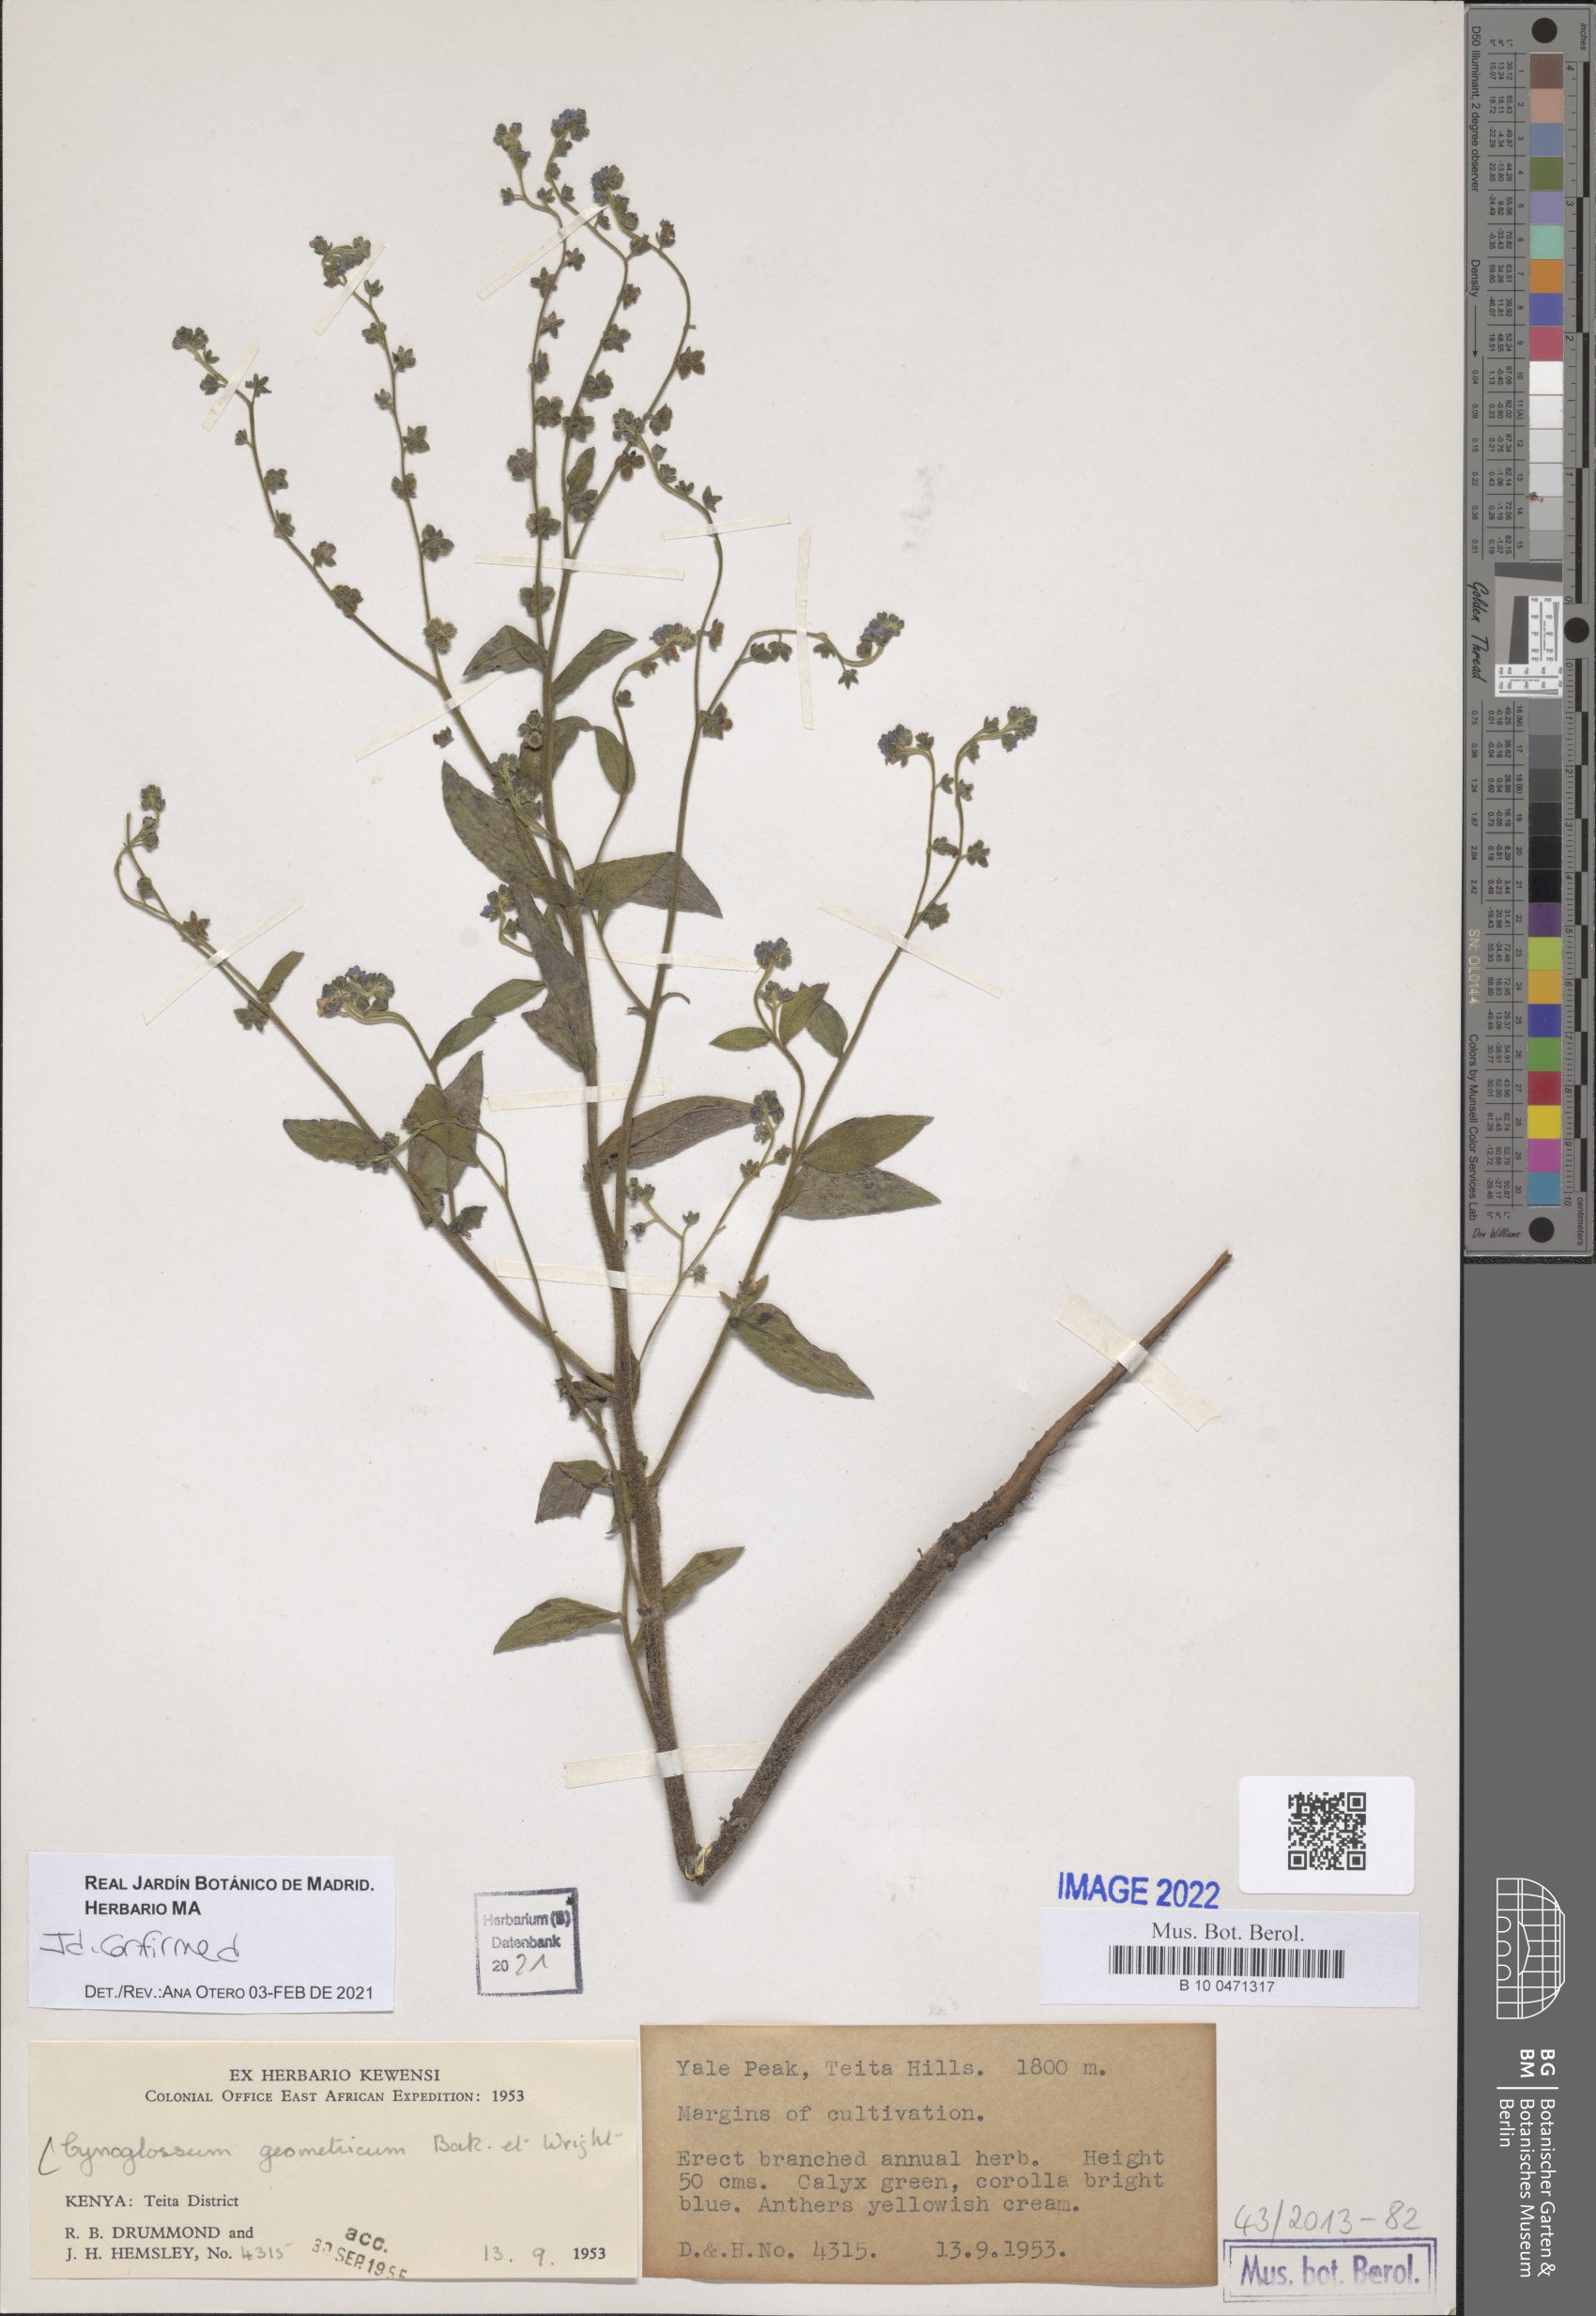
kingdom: Plantae
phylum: Tracheophyta
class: Magnoliopsida
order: Boraginales
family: Boraginaceae
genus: Paracynoglossum
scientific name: Paracynoglossum geometricum
